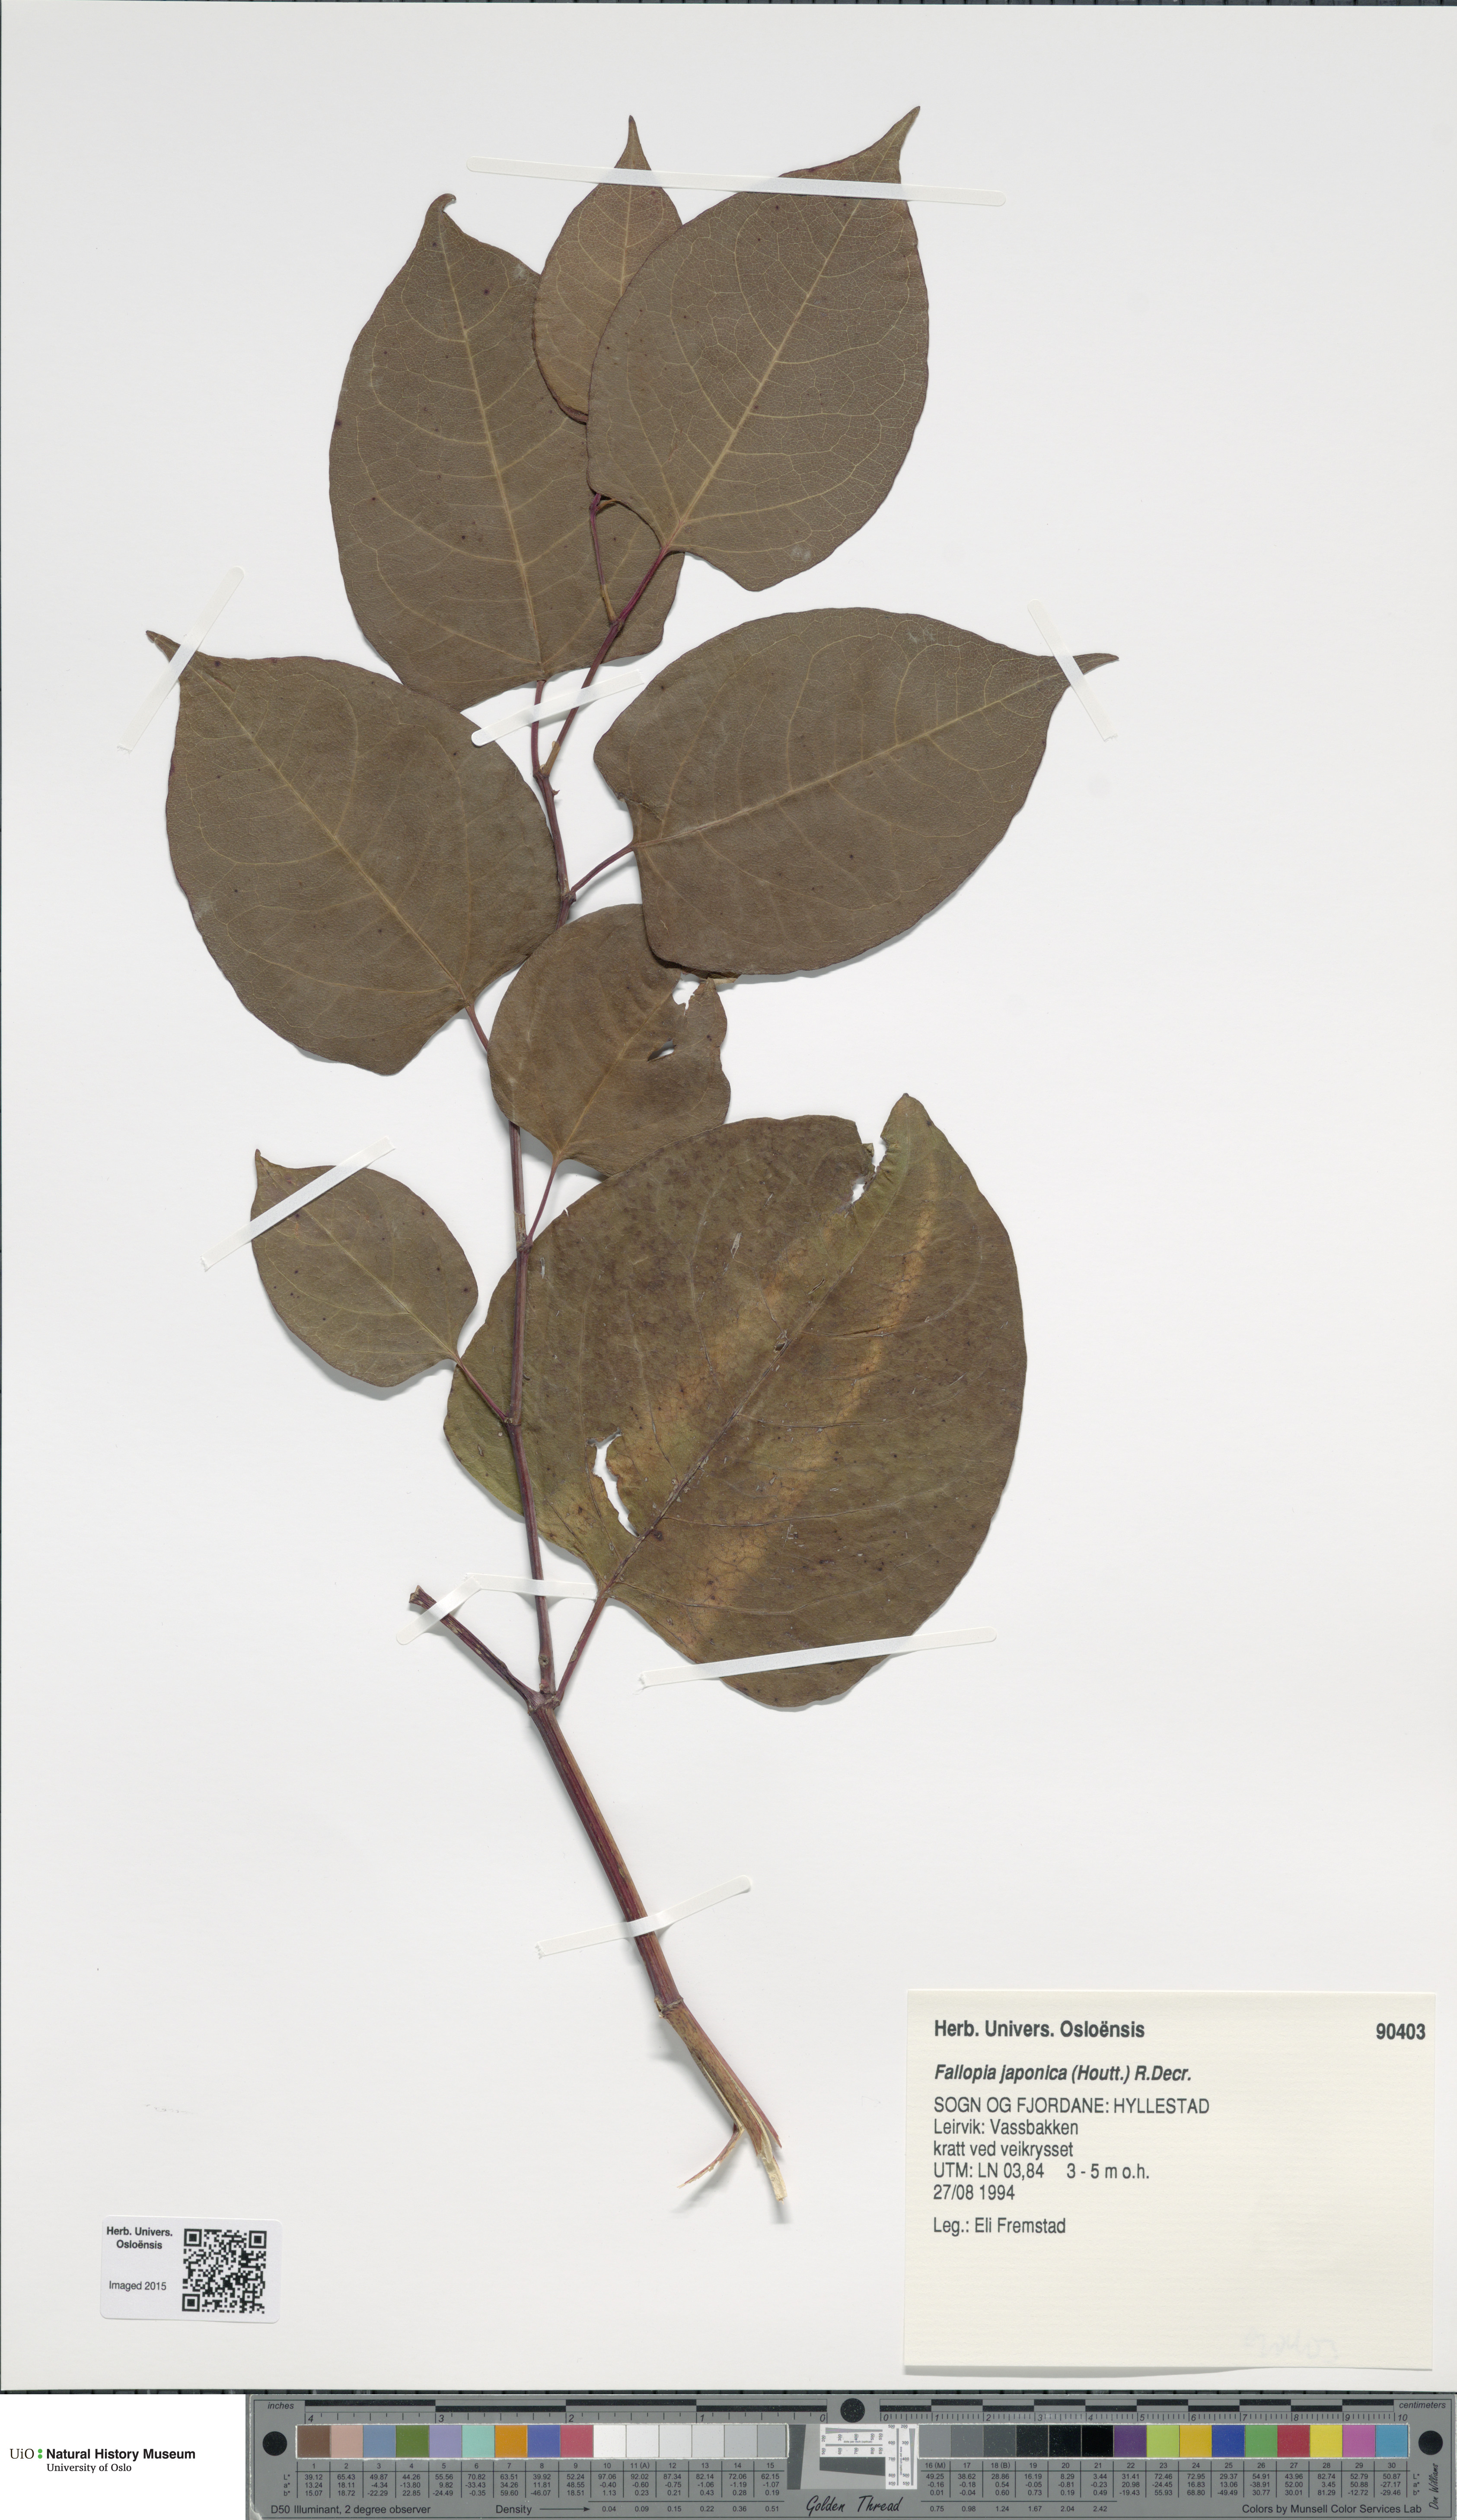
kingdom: Plantae
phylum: Tracheophyta
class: Magnoliopsida
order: Caryophyllales
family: Polygonaceae
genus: Reynoutria
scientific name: Reynoutria japonica
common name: Japanese knotweed
